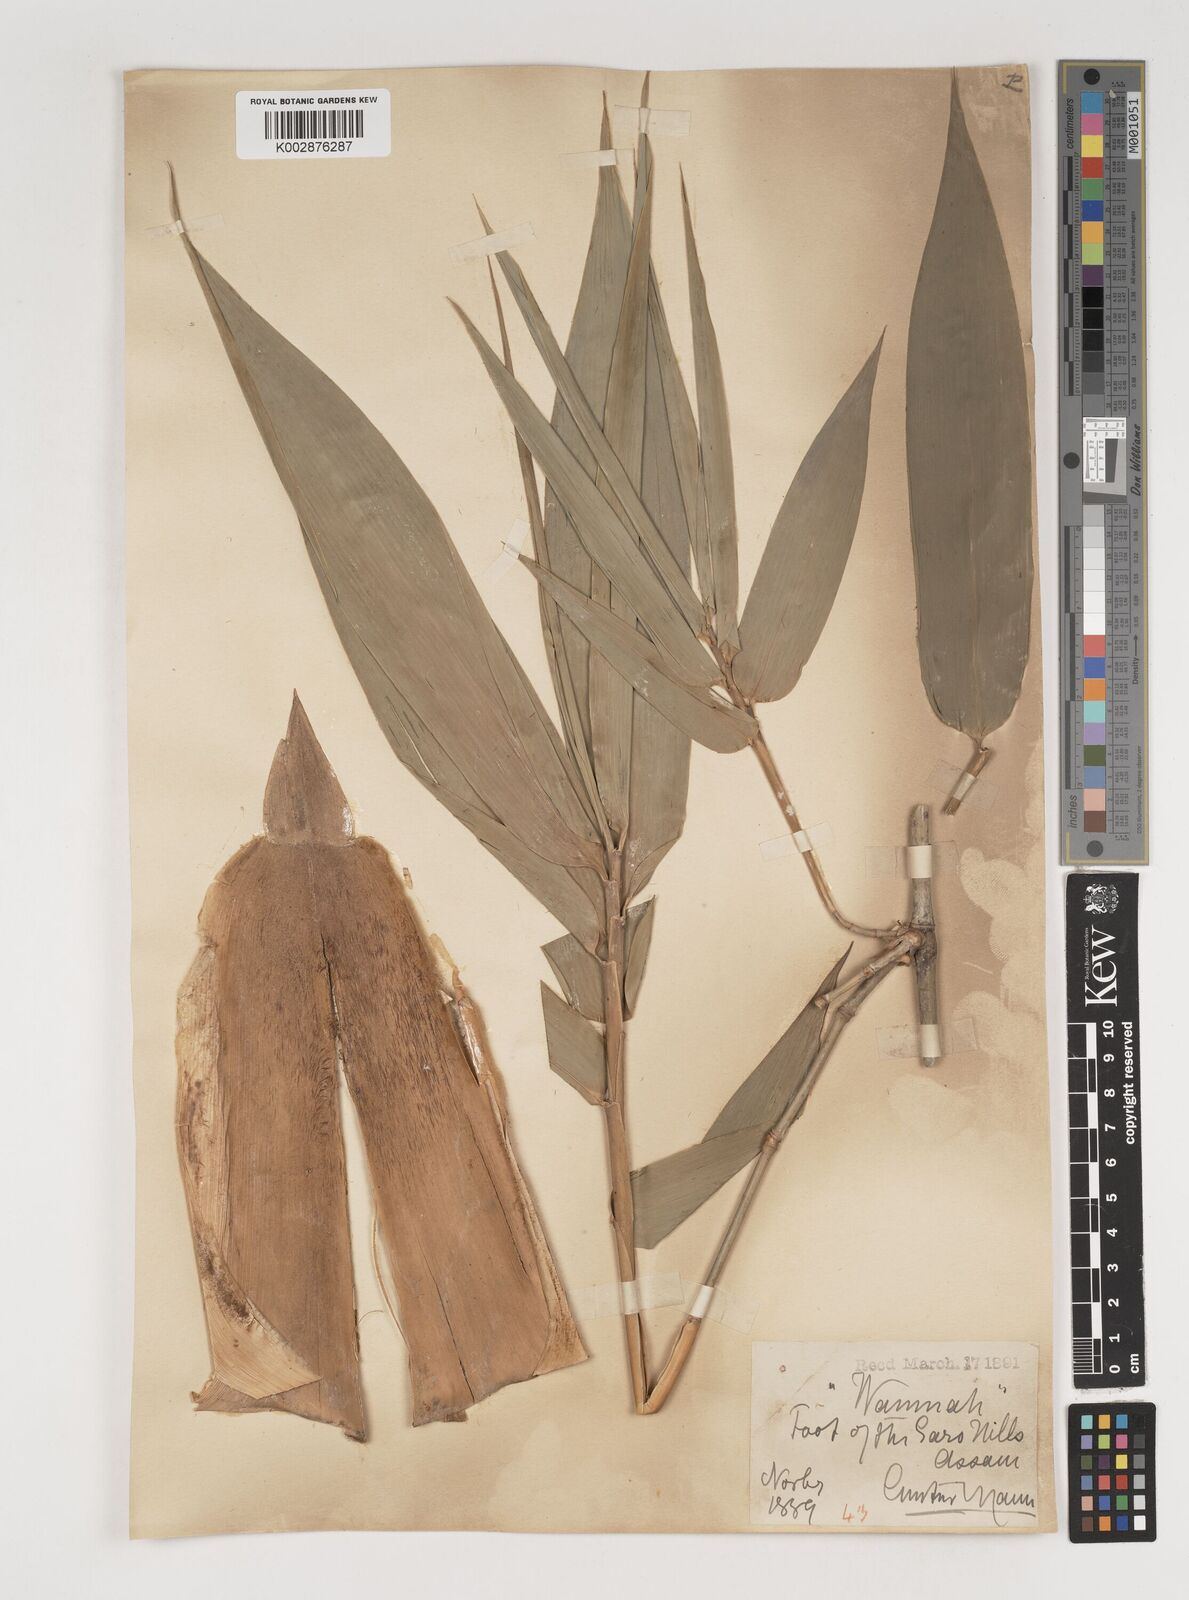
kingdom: Plantae
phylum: Tracheophyta
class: Liliopsida
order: Poales
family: Poaceae
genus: Bambusa
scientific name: Bambusa balcooa
